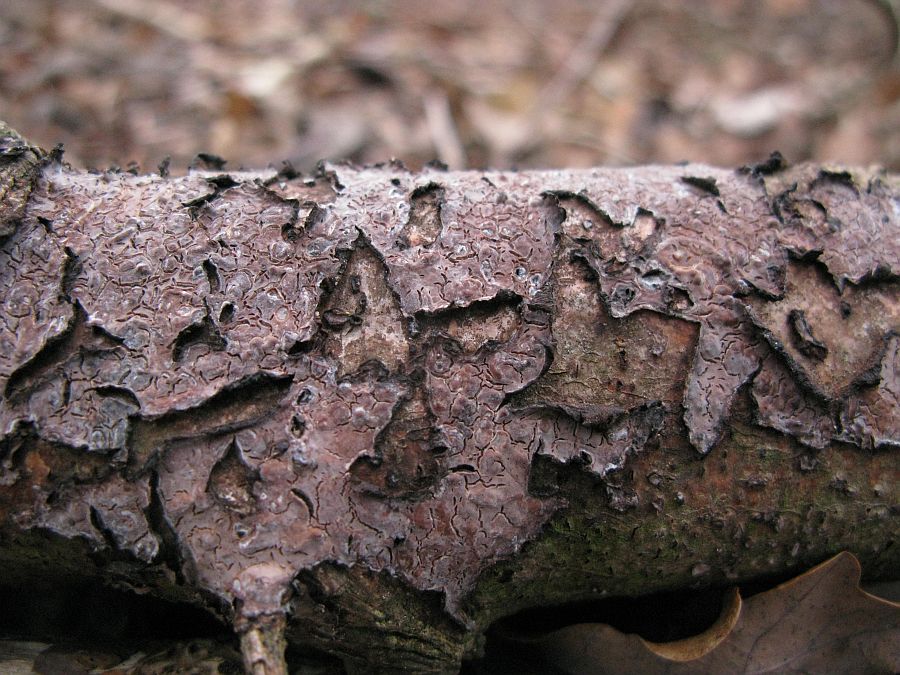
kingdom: Fungi
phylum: Basidiomycota
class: Agaricomycetes
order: Russulales
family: Peniophoraceae
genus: Peniophora
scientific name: Peniophora quercina
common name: ege-voksskind
